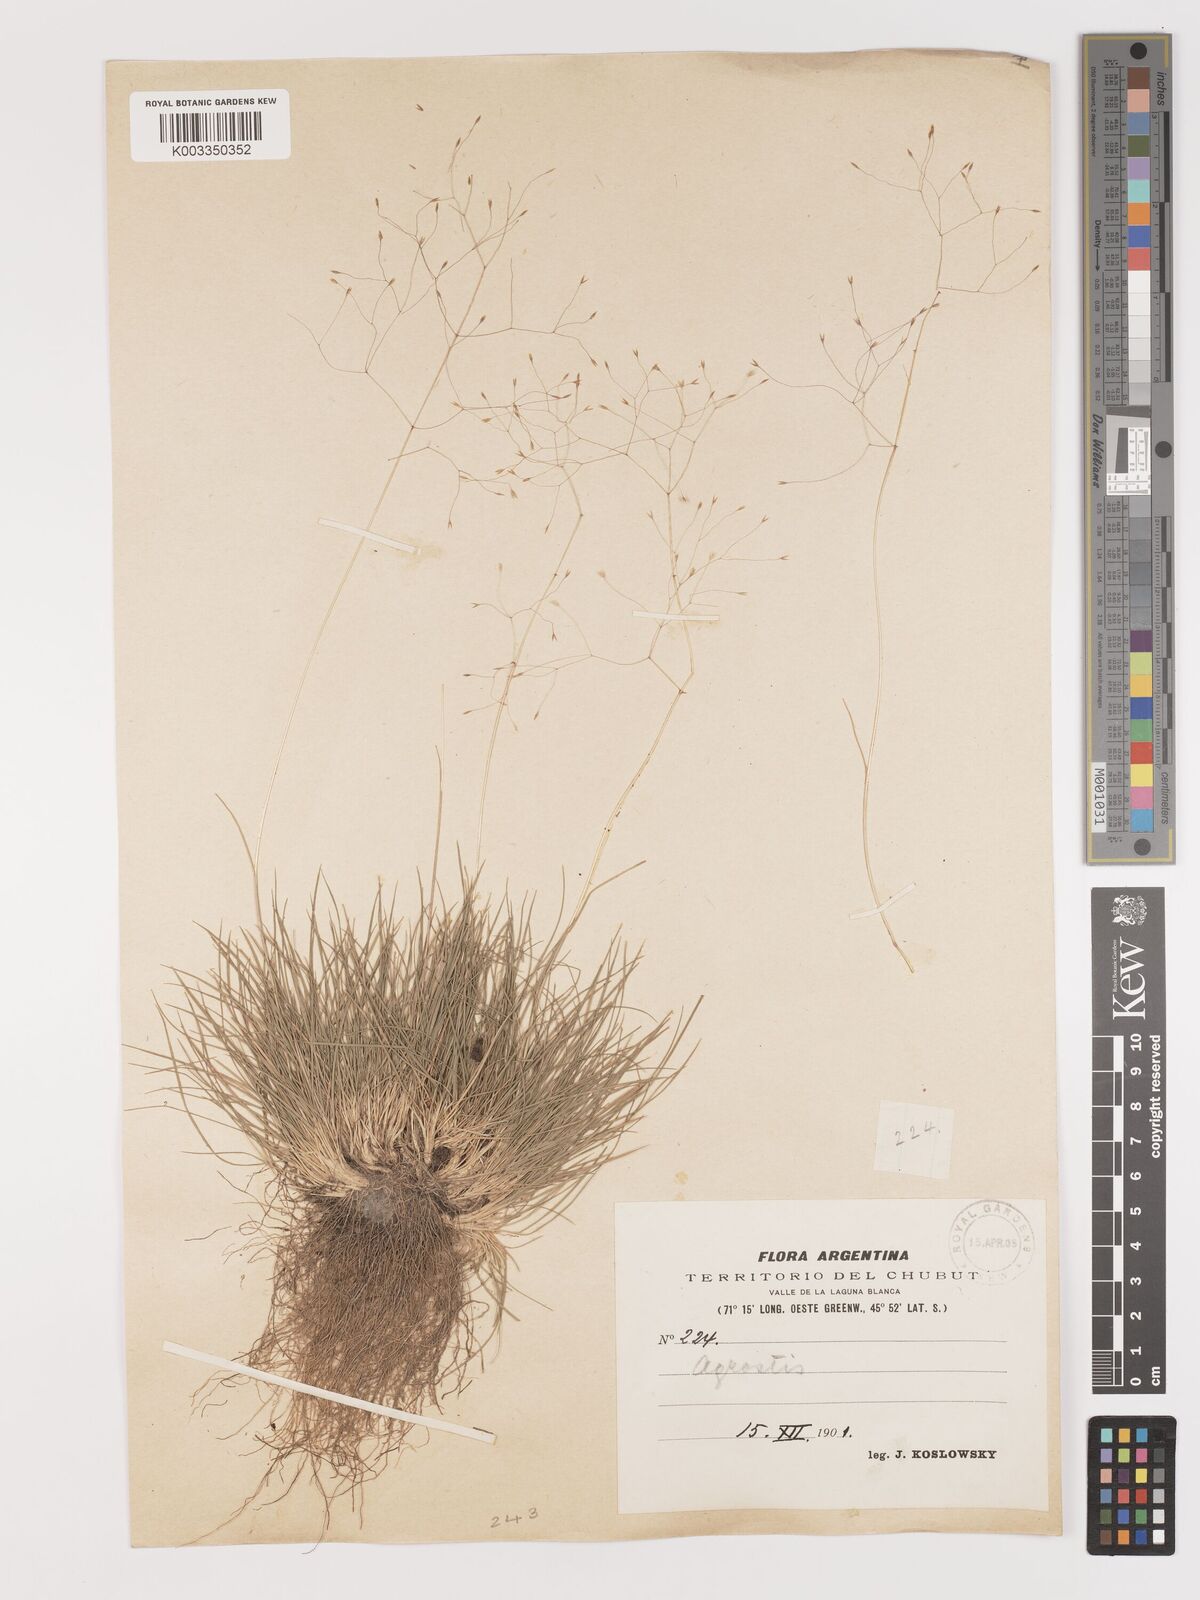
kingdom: Plantae
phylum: Tracheophyta
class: Liliopsida
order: Poales
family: Poaceae
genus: Agrostis
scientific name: Agrostis
